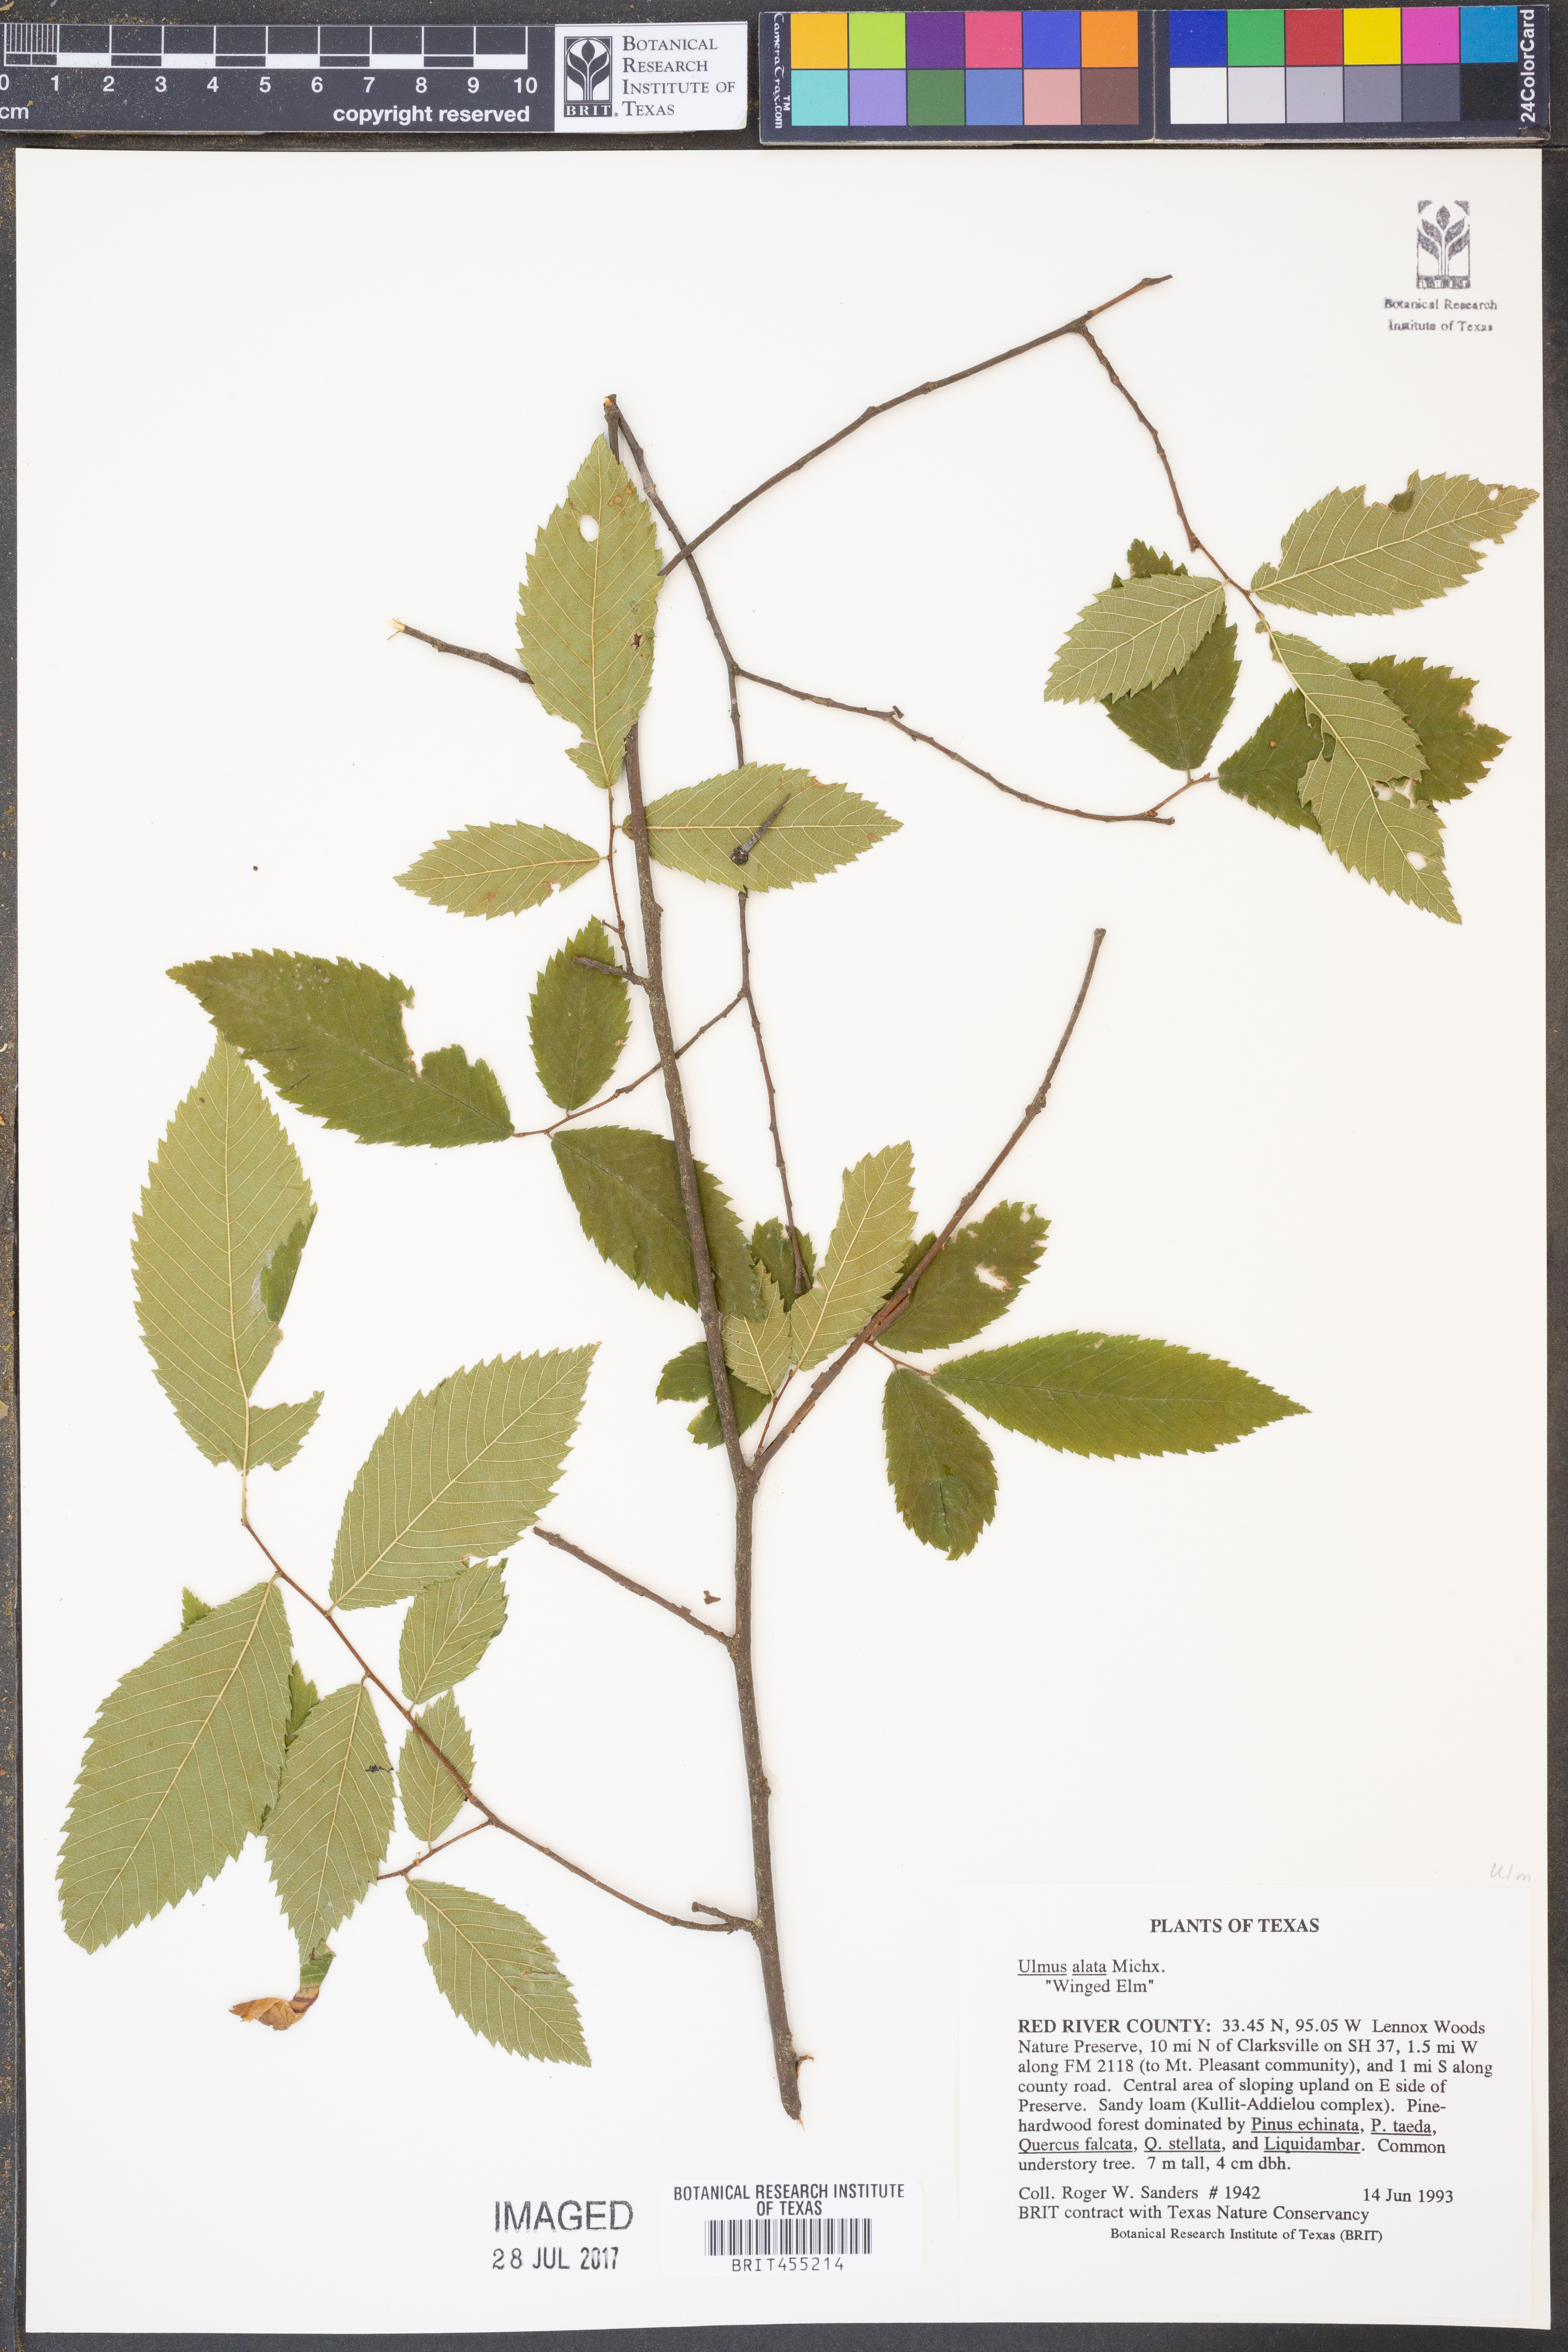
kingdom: Plantae
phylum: Tracheophyta
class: Magnoliopsida
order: Rosales
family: Ulmaceae
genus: Ulmus
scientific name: Ulmus alata
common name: Winged elm
